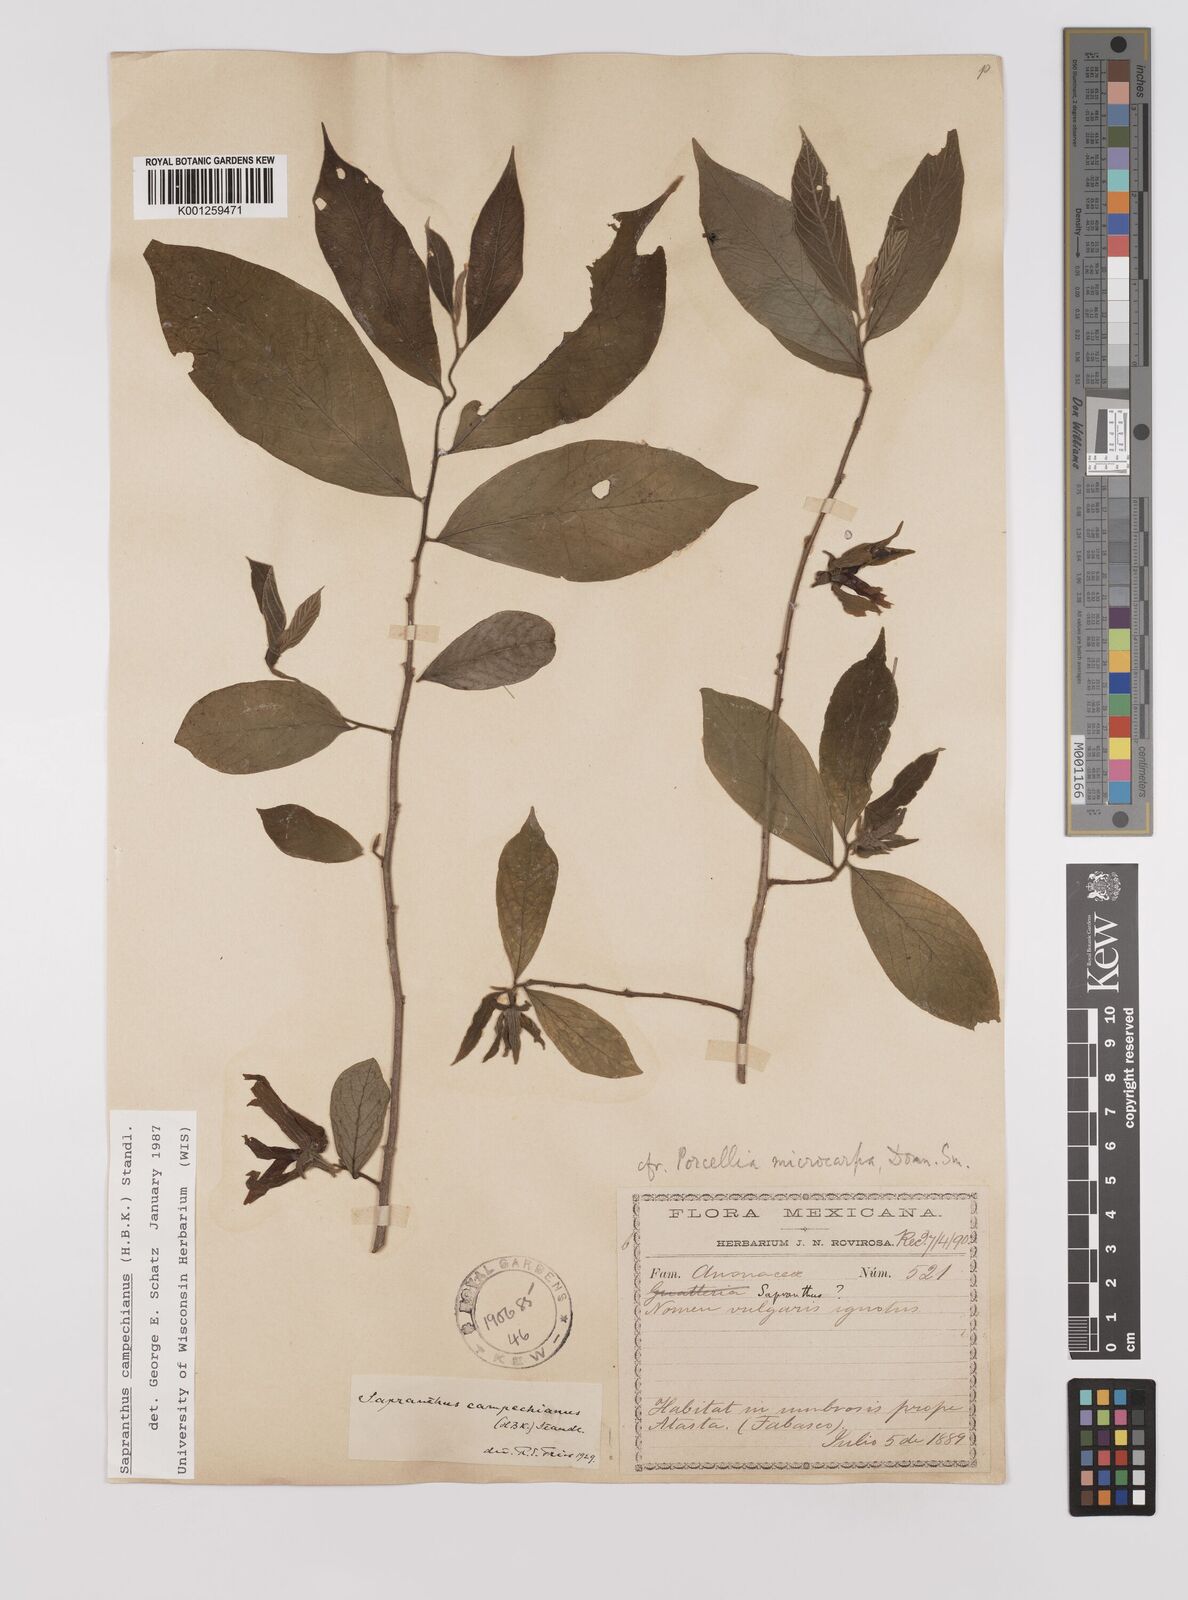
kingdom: Plantae
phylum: Tracheophyta
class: Magnoliopsida
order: Magnoliales
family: Annonaceae
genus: Sapranthus
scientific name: Sapranthus campechianus
